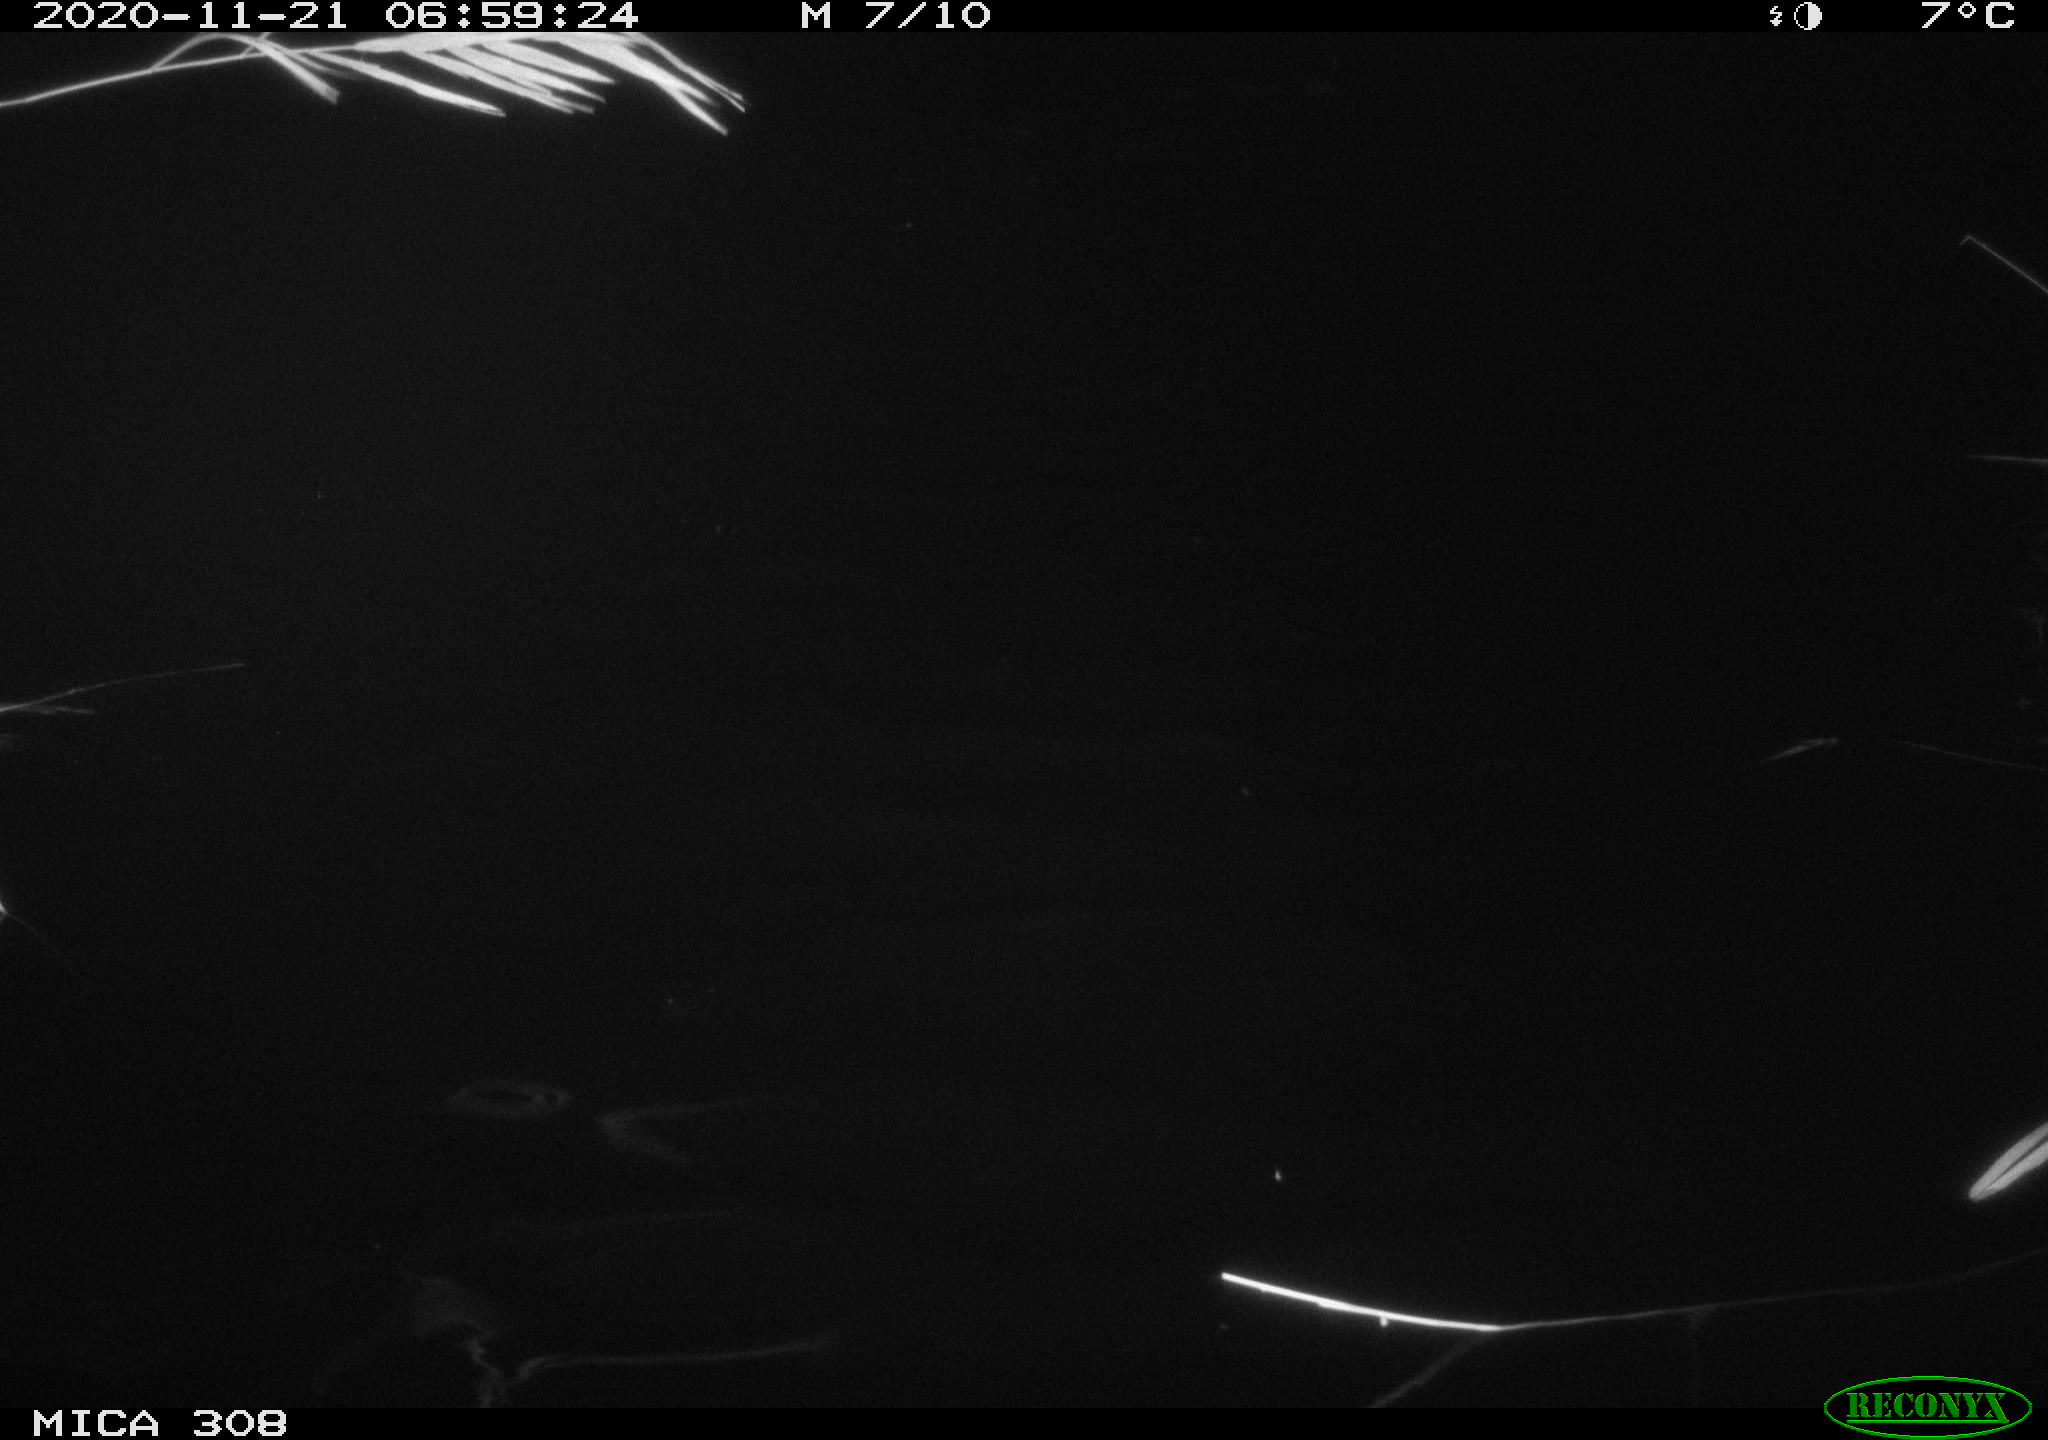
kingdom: Animalia
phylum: Chordata
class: Aves
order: Gruiformes
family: Rallidae
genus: Fulica
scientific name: Fulica atra
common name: Eurasian coot
